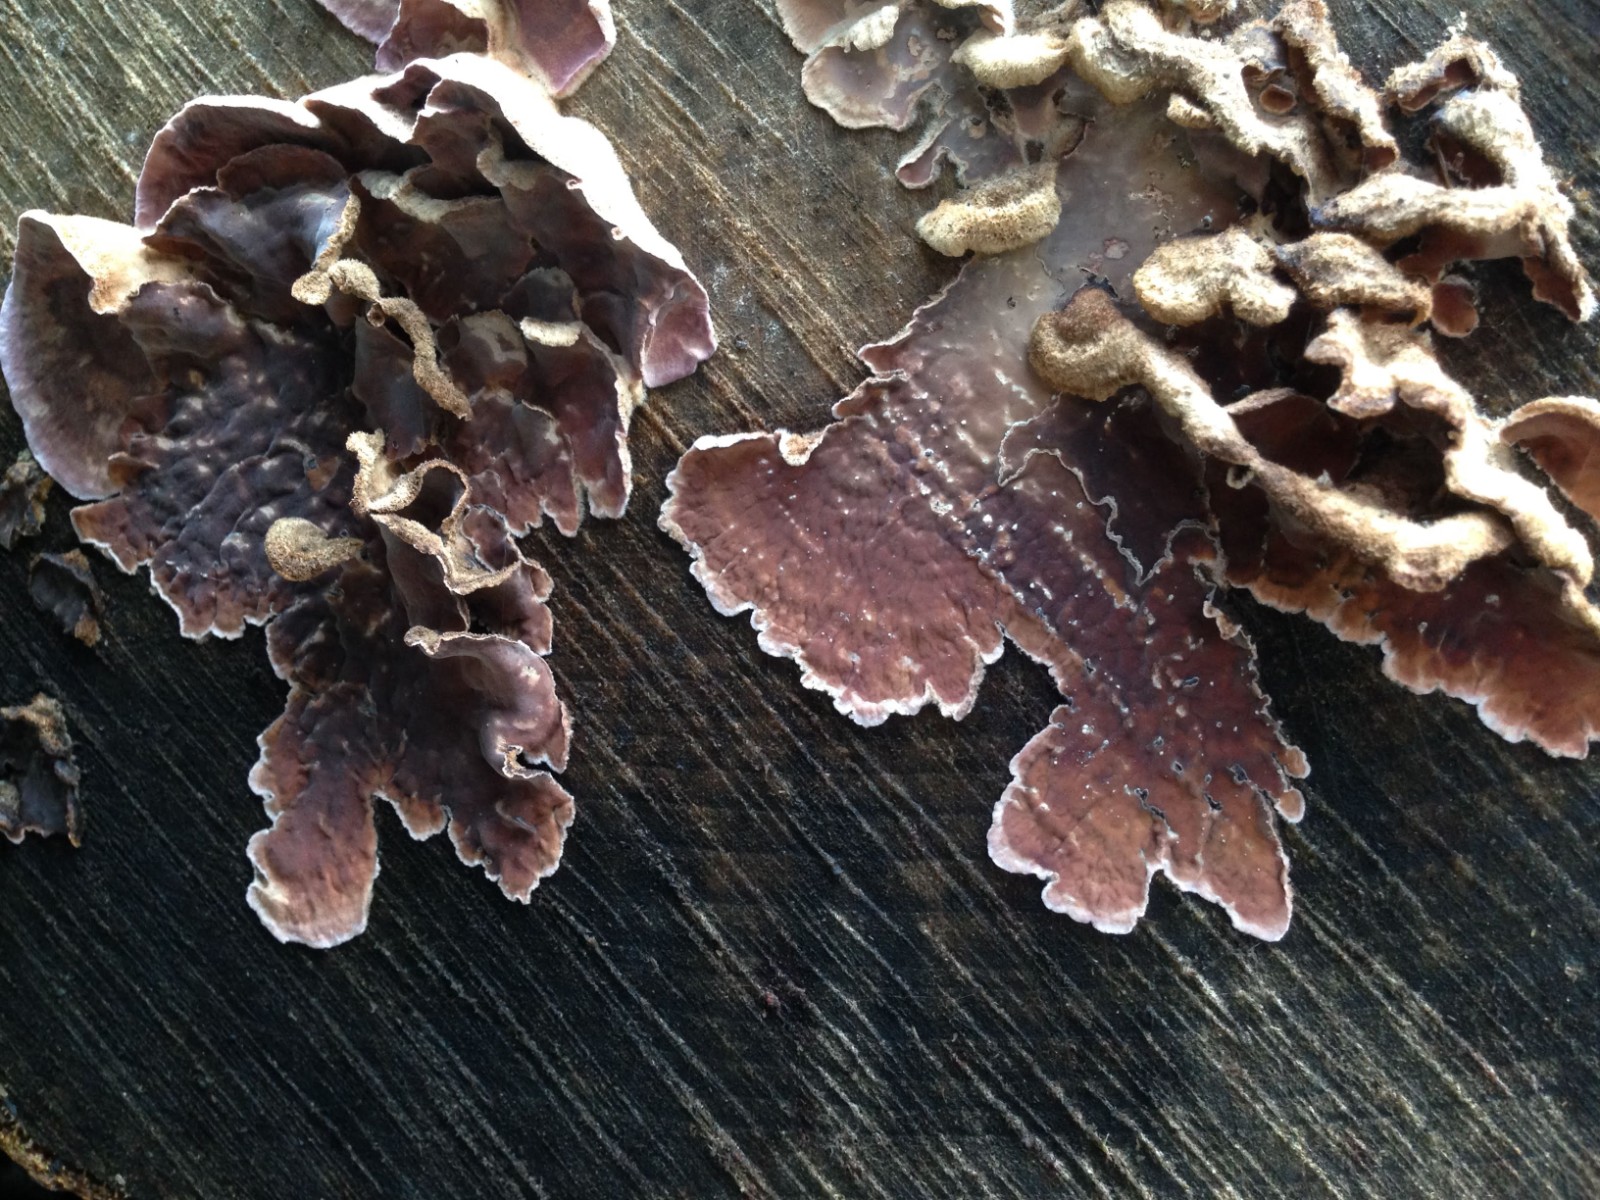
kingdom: Fungi
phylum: Basidiomycota
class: Agaricomycetes
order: Agaricales
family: Cyphellaceae
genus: Chondrostereum
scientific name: Chondrostereum purpureum
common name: purpurlædersvamp
